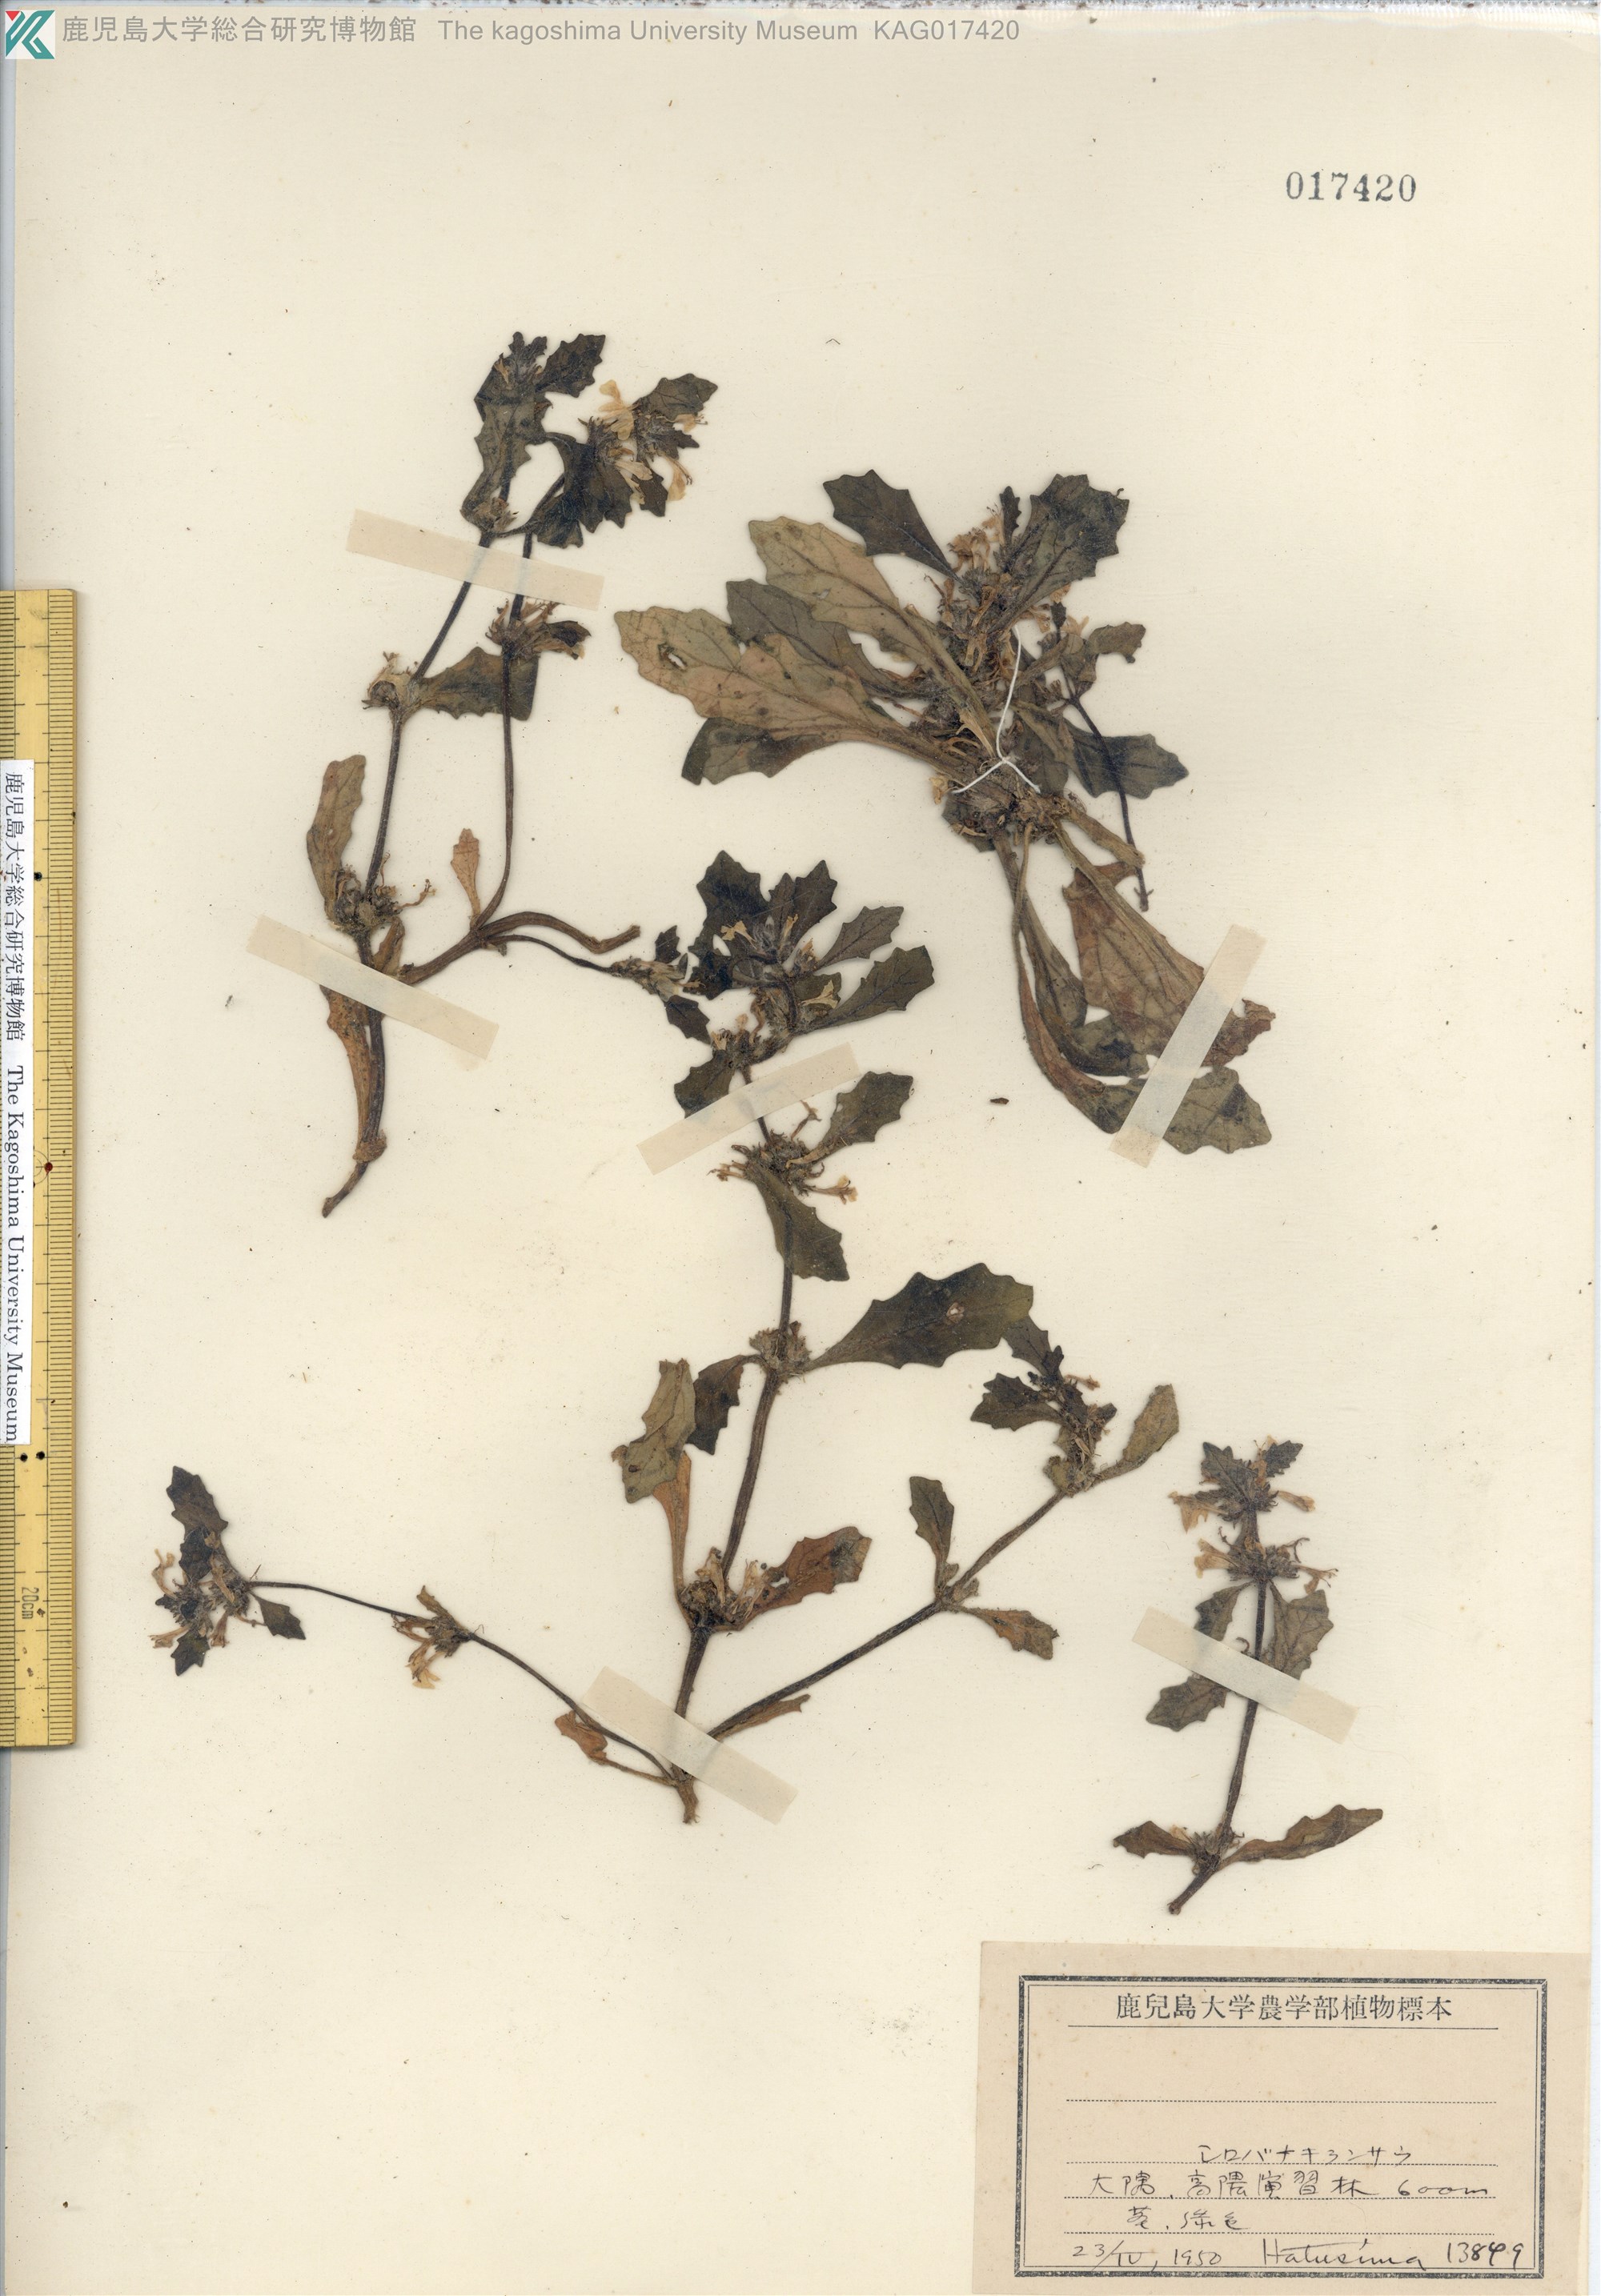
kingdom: Plantae
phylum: Tracheophyta
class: Magnoliopsida
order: Lamiales
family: Lamiaceae
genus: Ajuga
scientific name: Ajuga decumbens
